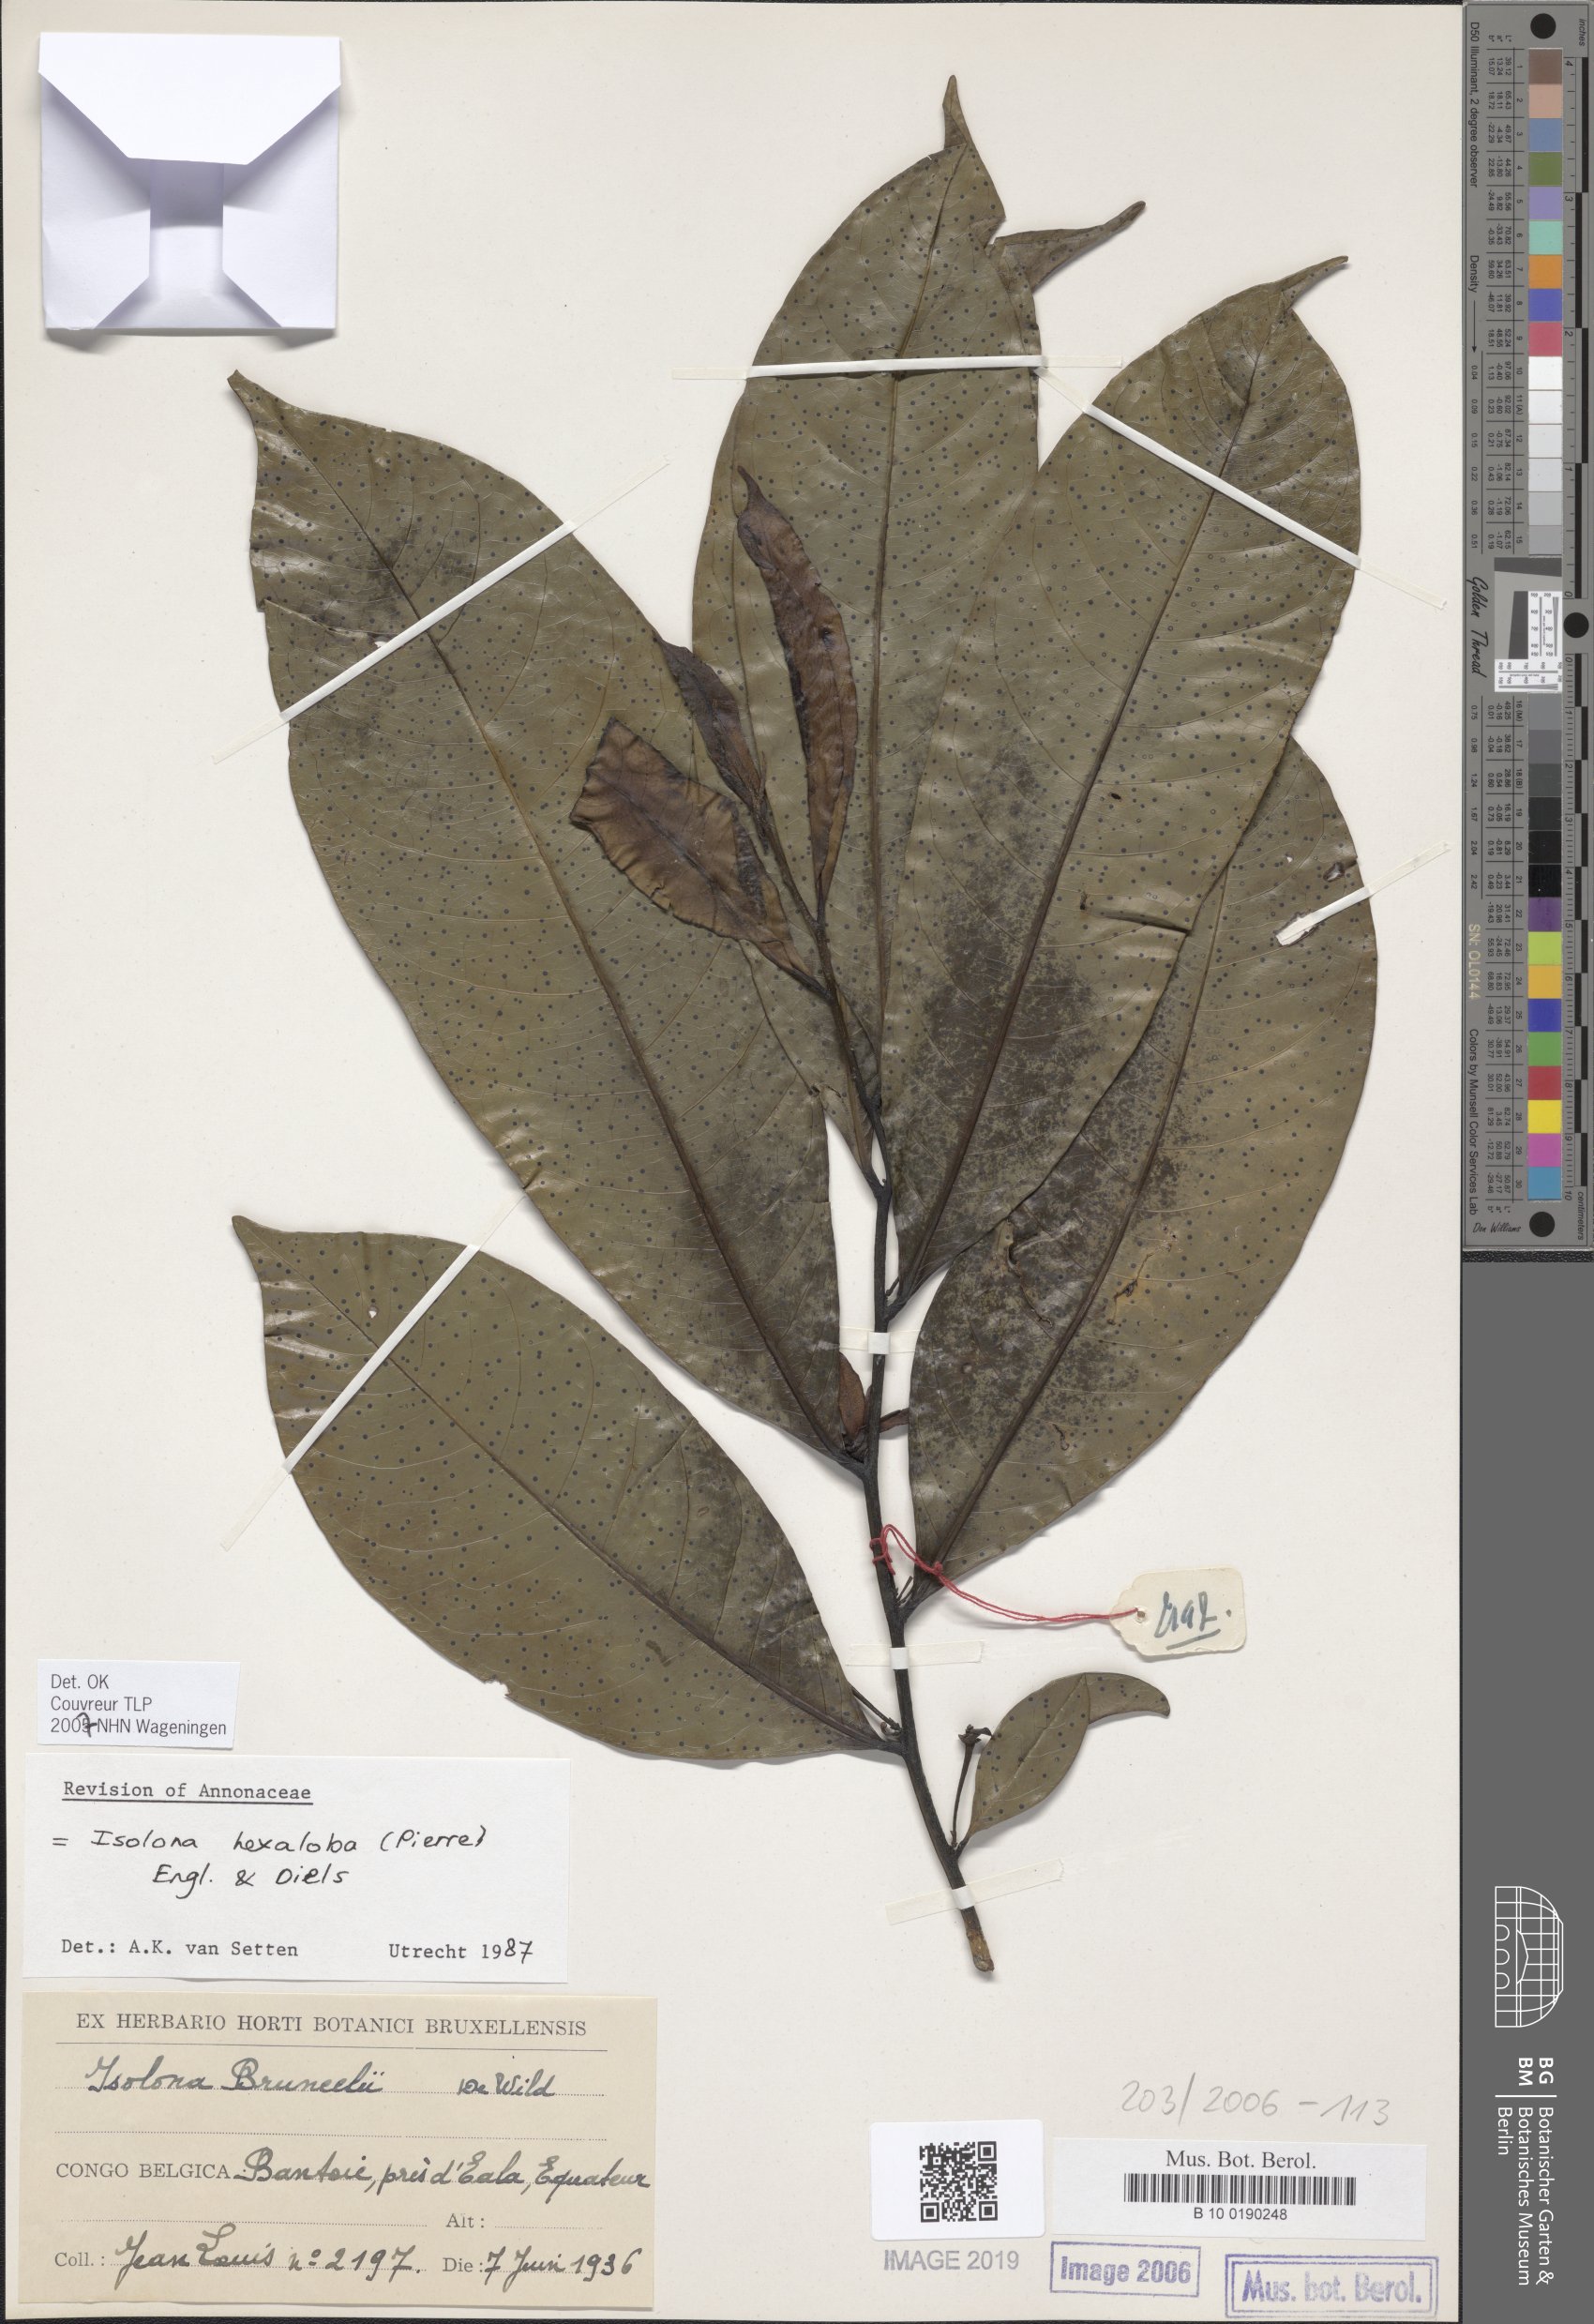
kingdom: Plantae
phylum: Tracheophyta
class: Magnoliopsida
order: Magnoliales
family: Annonaceae
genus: Isolona
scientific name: Isolona hexaloba
